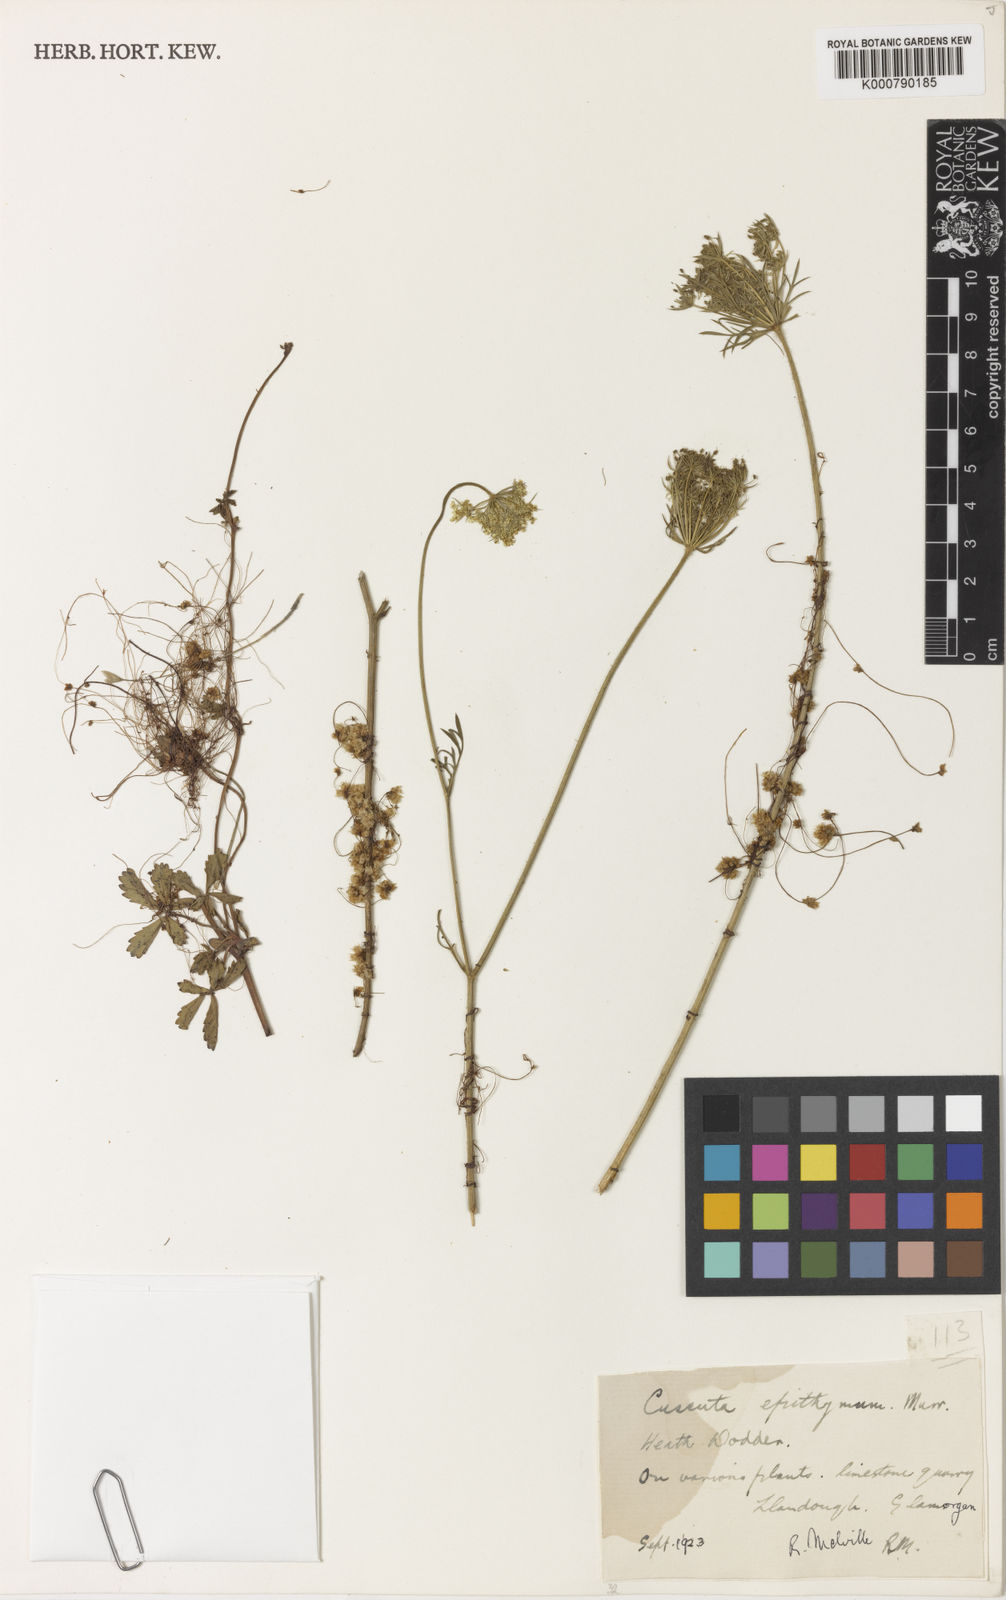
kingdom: Plantae
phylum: Tracheophyta
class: Magnoliopsida
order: Solanales
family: Convolvulaceae
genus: Cuscuta
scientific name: Cuscuta epithymum
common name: Clover dodder
